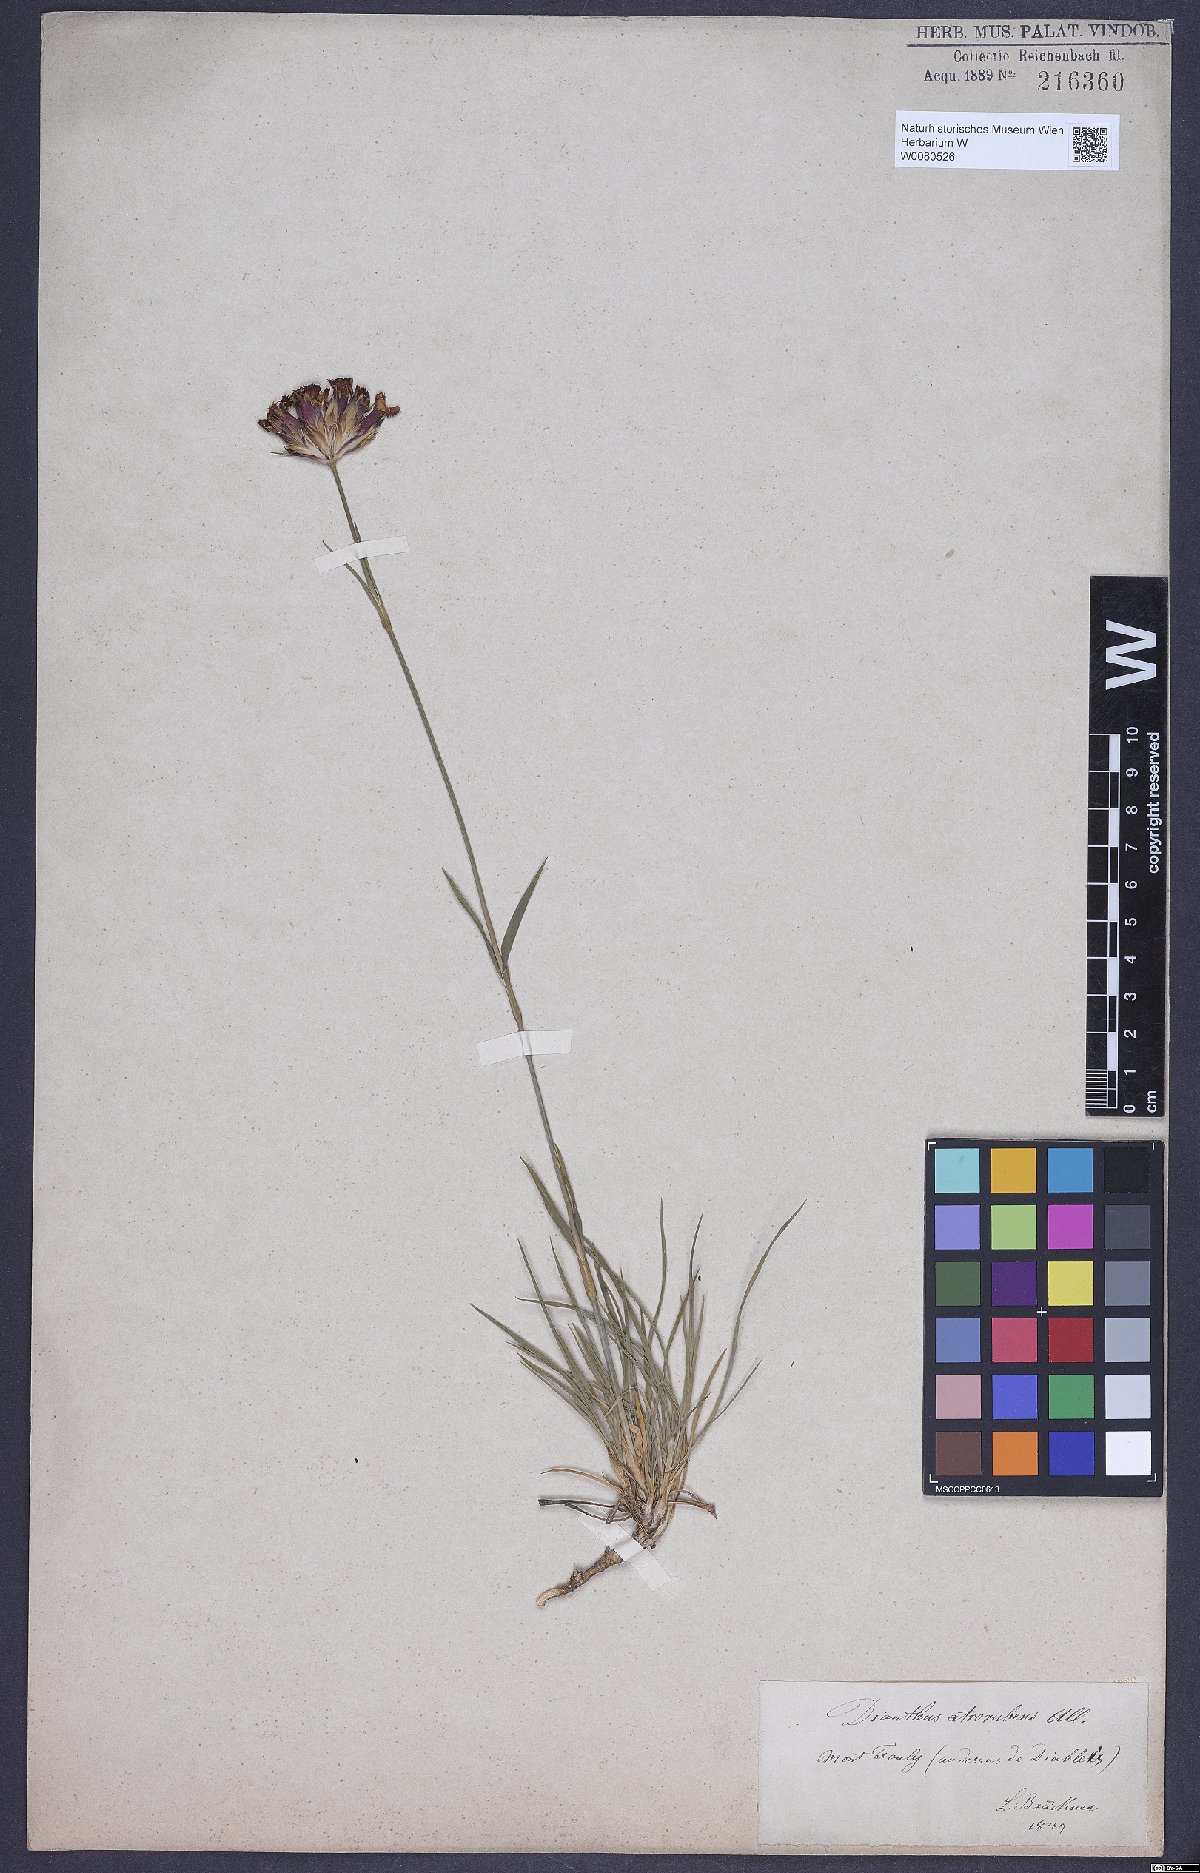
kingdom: Plantae
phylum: Tracheophyta
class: Magnoliopsida
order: Caryophyllales
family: Caryophyllaceae
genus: Dianthus
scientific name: Dianthus carthusianorum
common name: Carthusian pink
